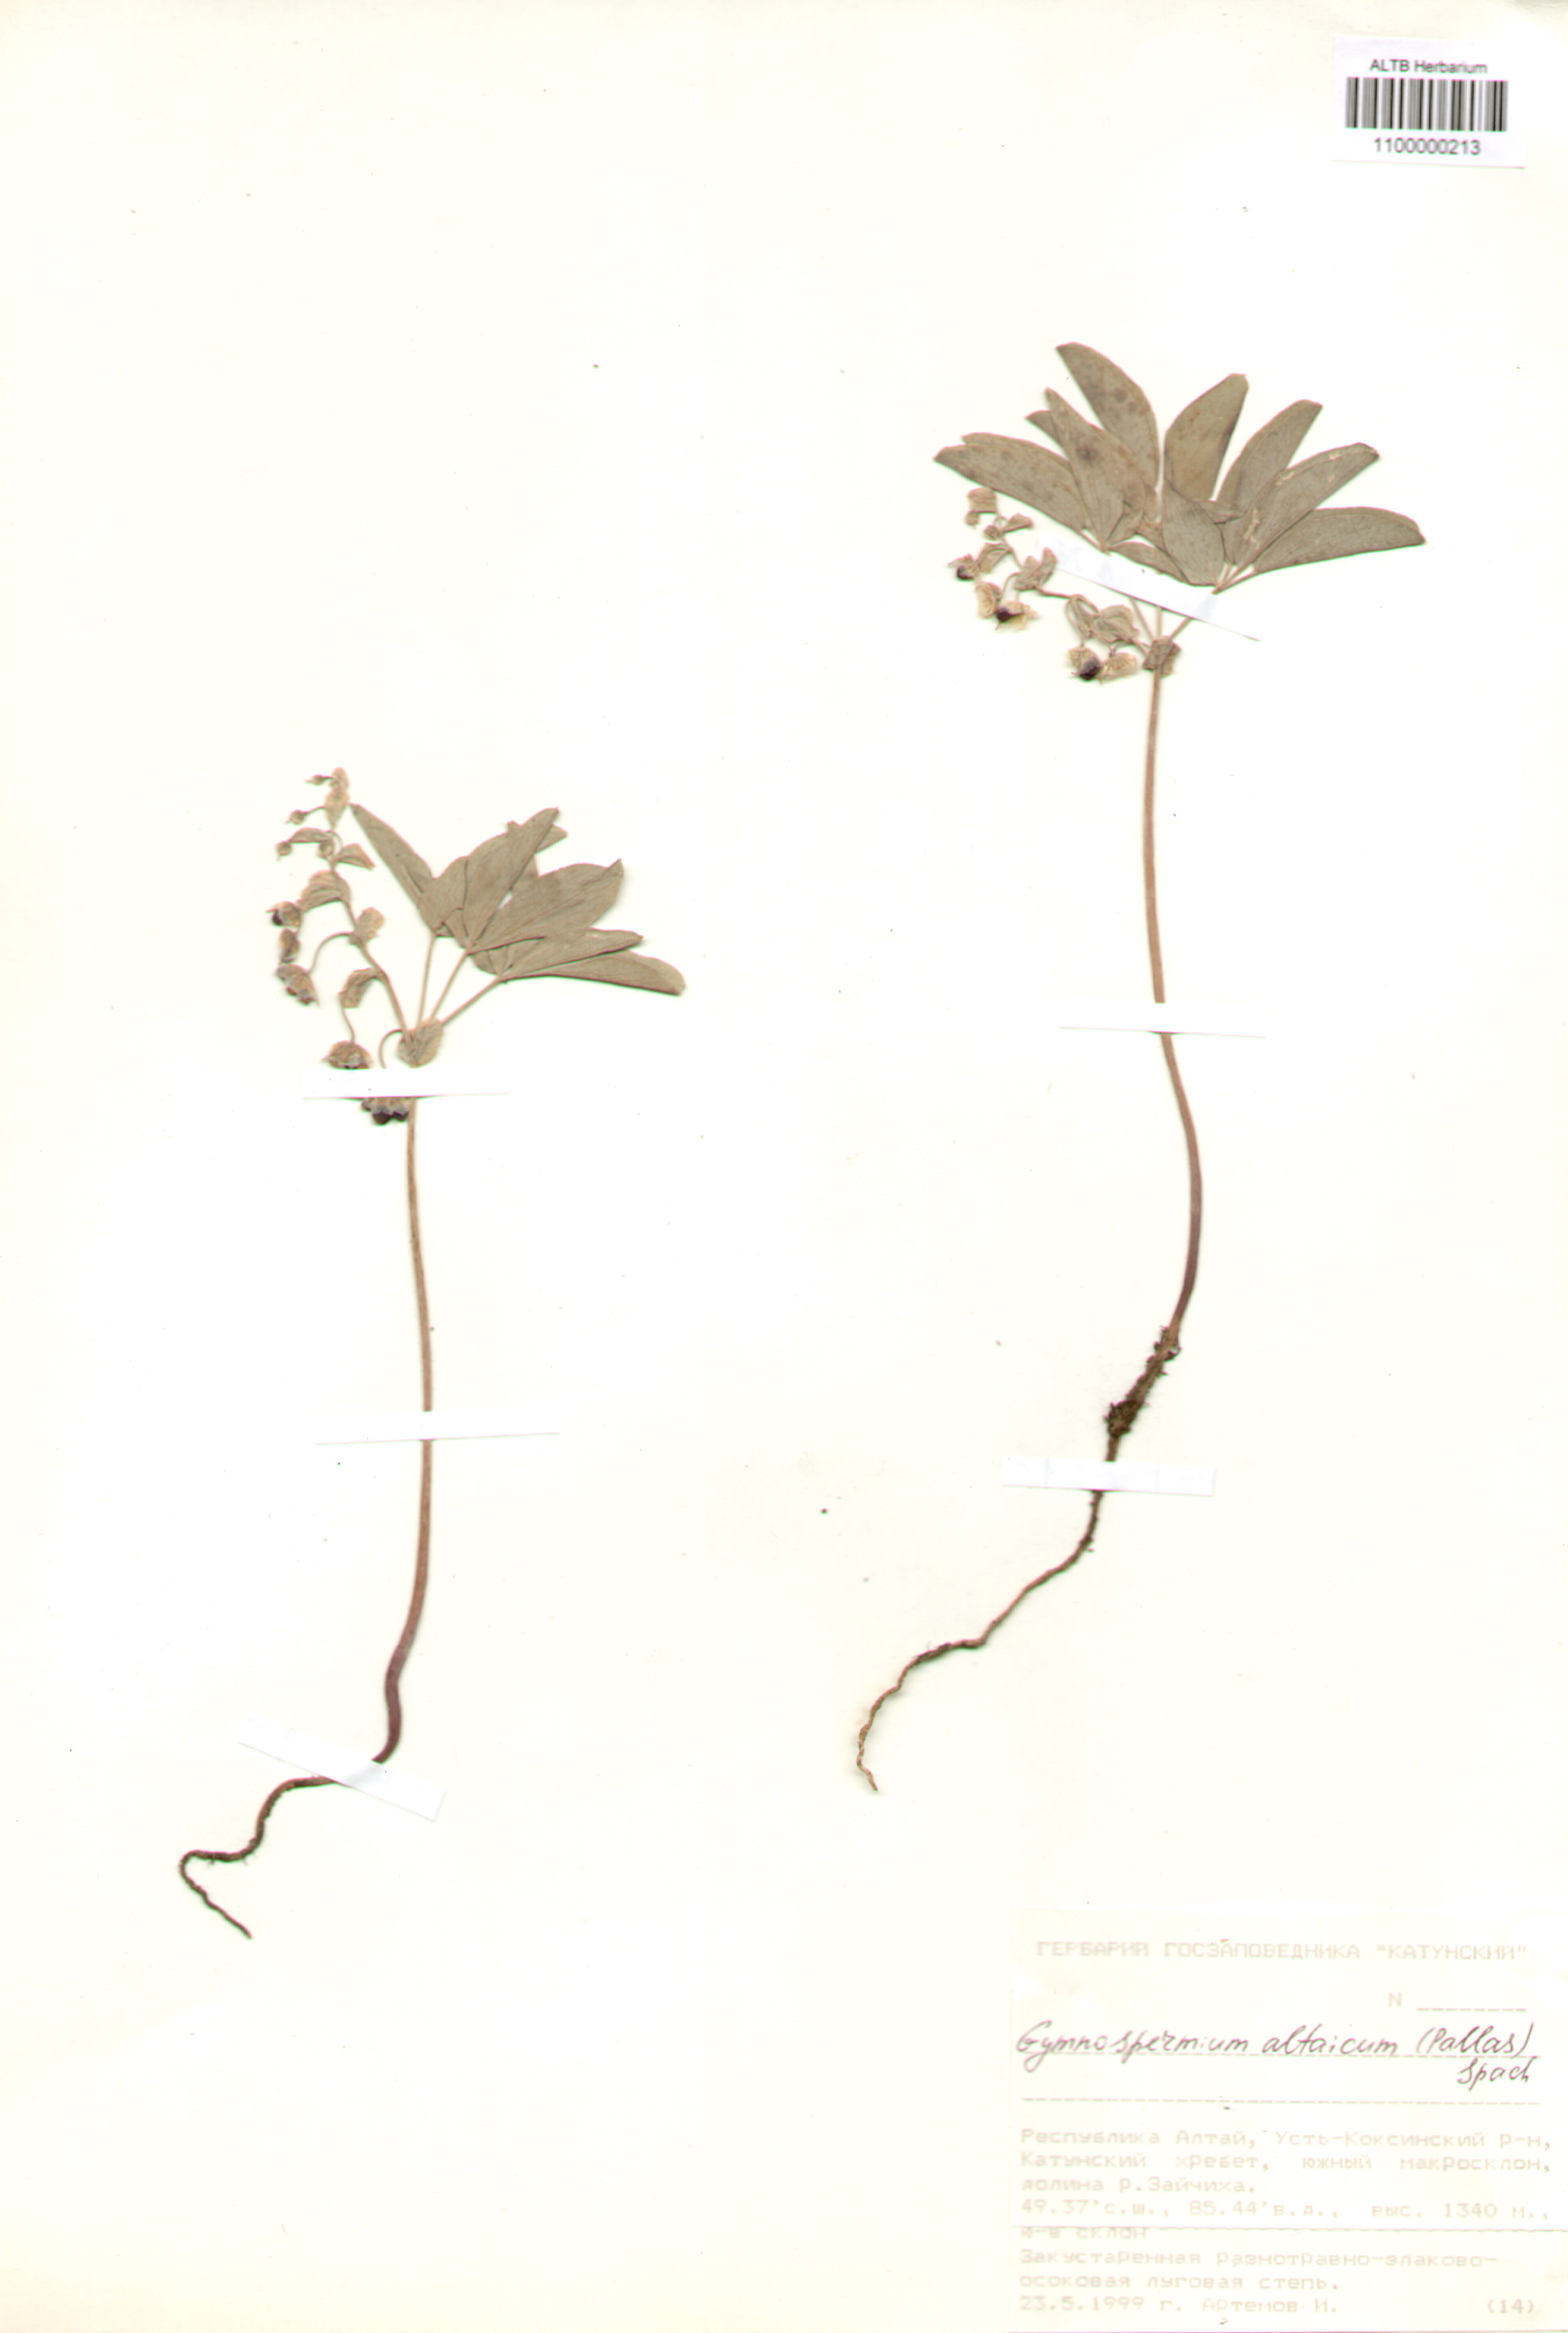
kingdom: Plantae
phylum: Tracheophyta
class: Magnoliopsida
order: Ranunculales
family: Berberidaceae
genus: Gymnospermium
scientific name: Gymnospermium altaicum
